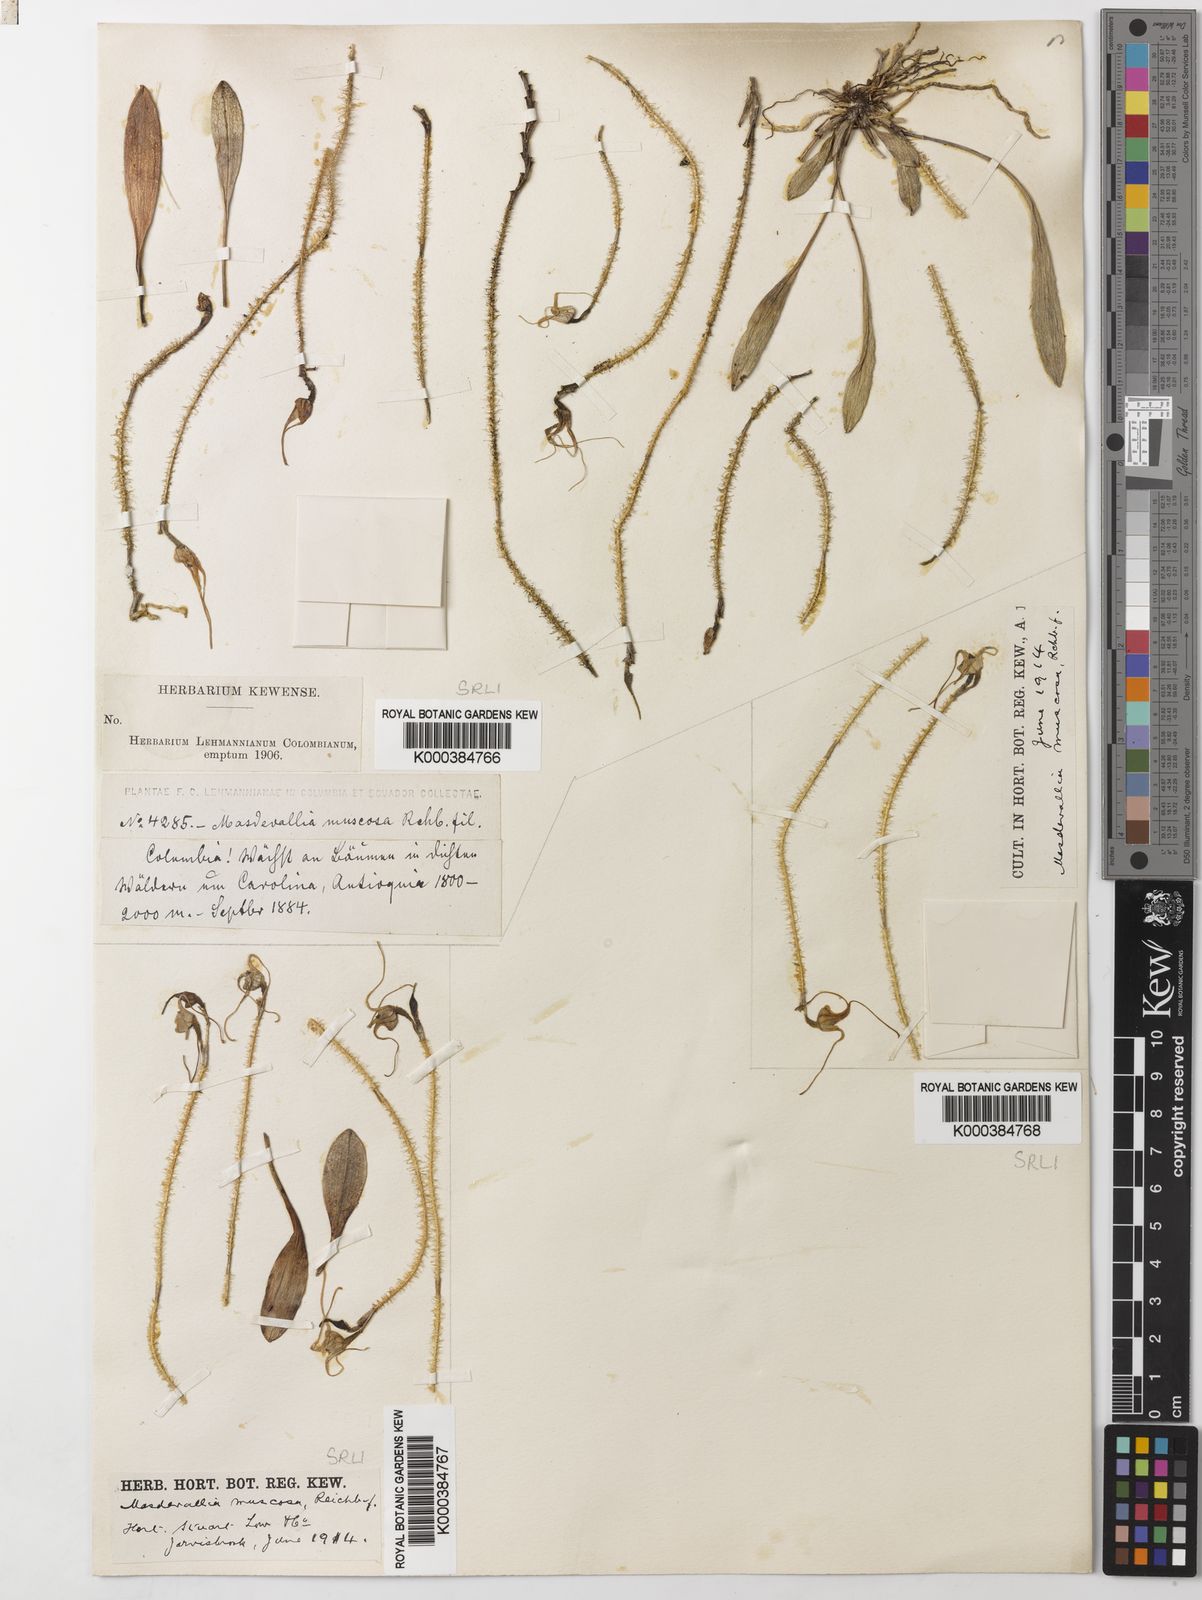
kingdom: Plantae
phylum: Tracheophyta
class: Liliopsida
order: Asparagales
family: Orchidaceae
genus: Porroglossum
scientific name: Porroglossum muscosum
